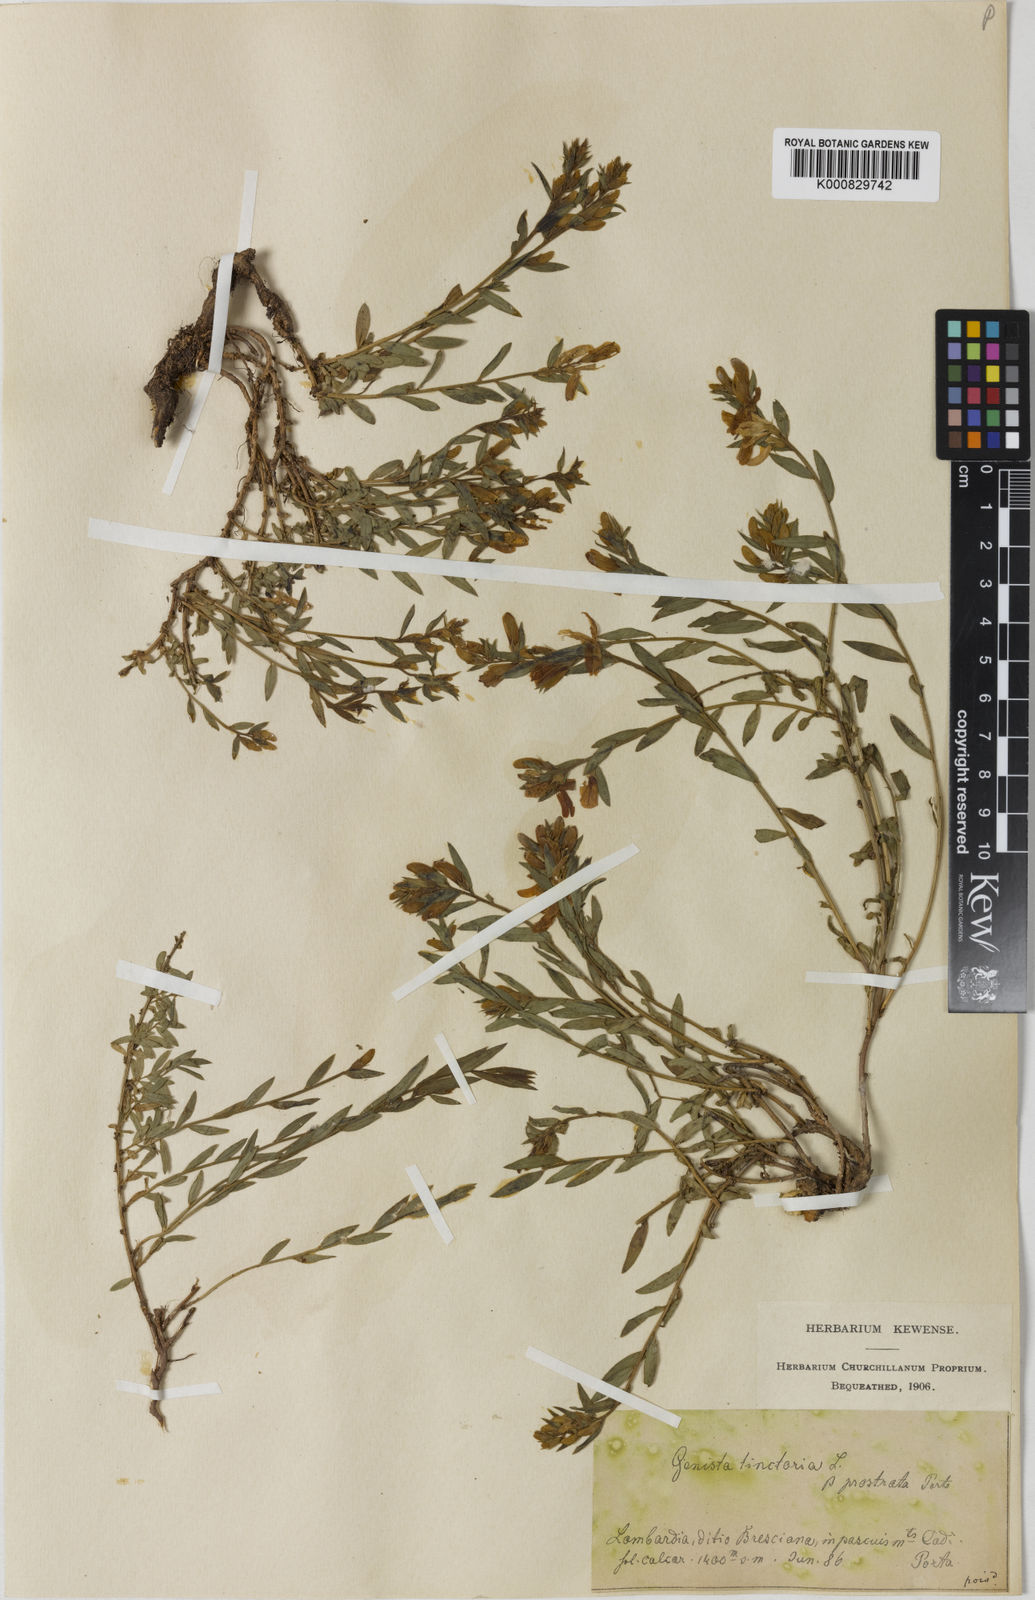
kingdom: Plantae
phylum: Tracheophyta
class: Magnoliopsida
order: Fabales
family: Fabaceae
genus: Genista
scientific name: Genista tinctoria
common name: Dyer's greenweed
